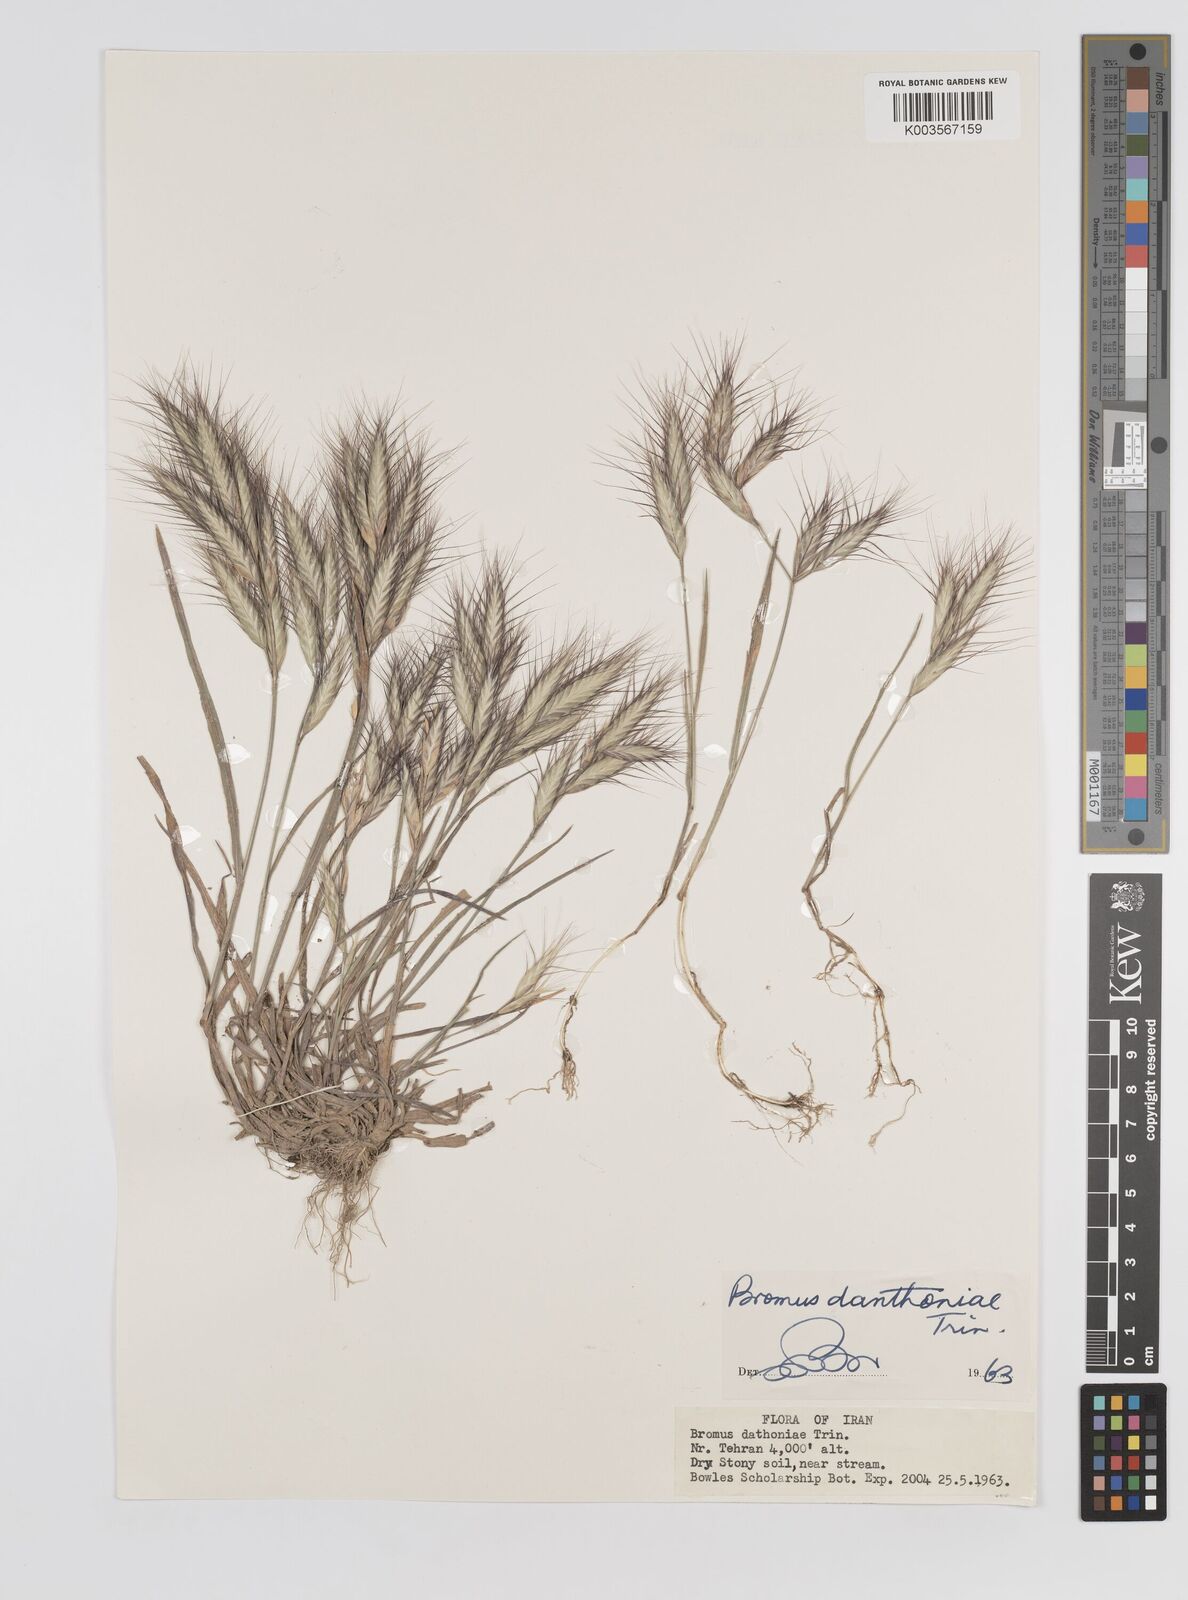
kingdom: Plantae
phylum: Tracheophyta
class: Liliopsida
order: Poales
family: Poaceae
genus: Bromus
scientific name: Bromus danthoniae
